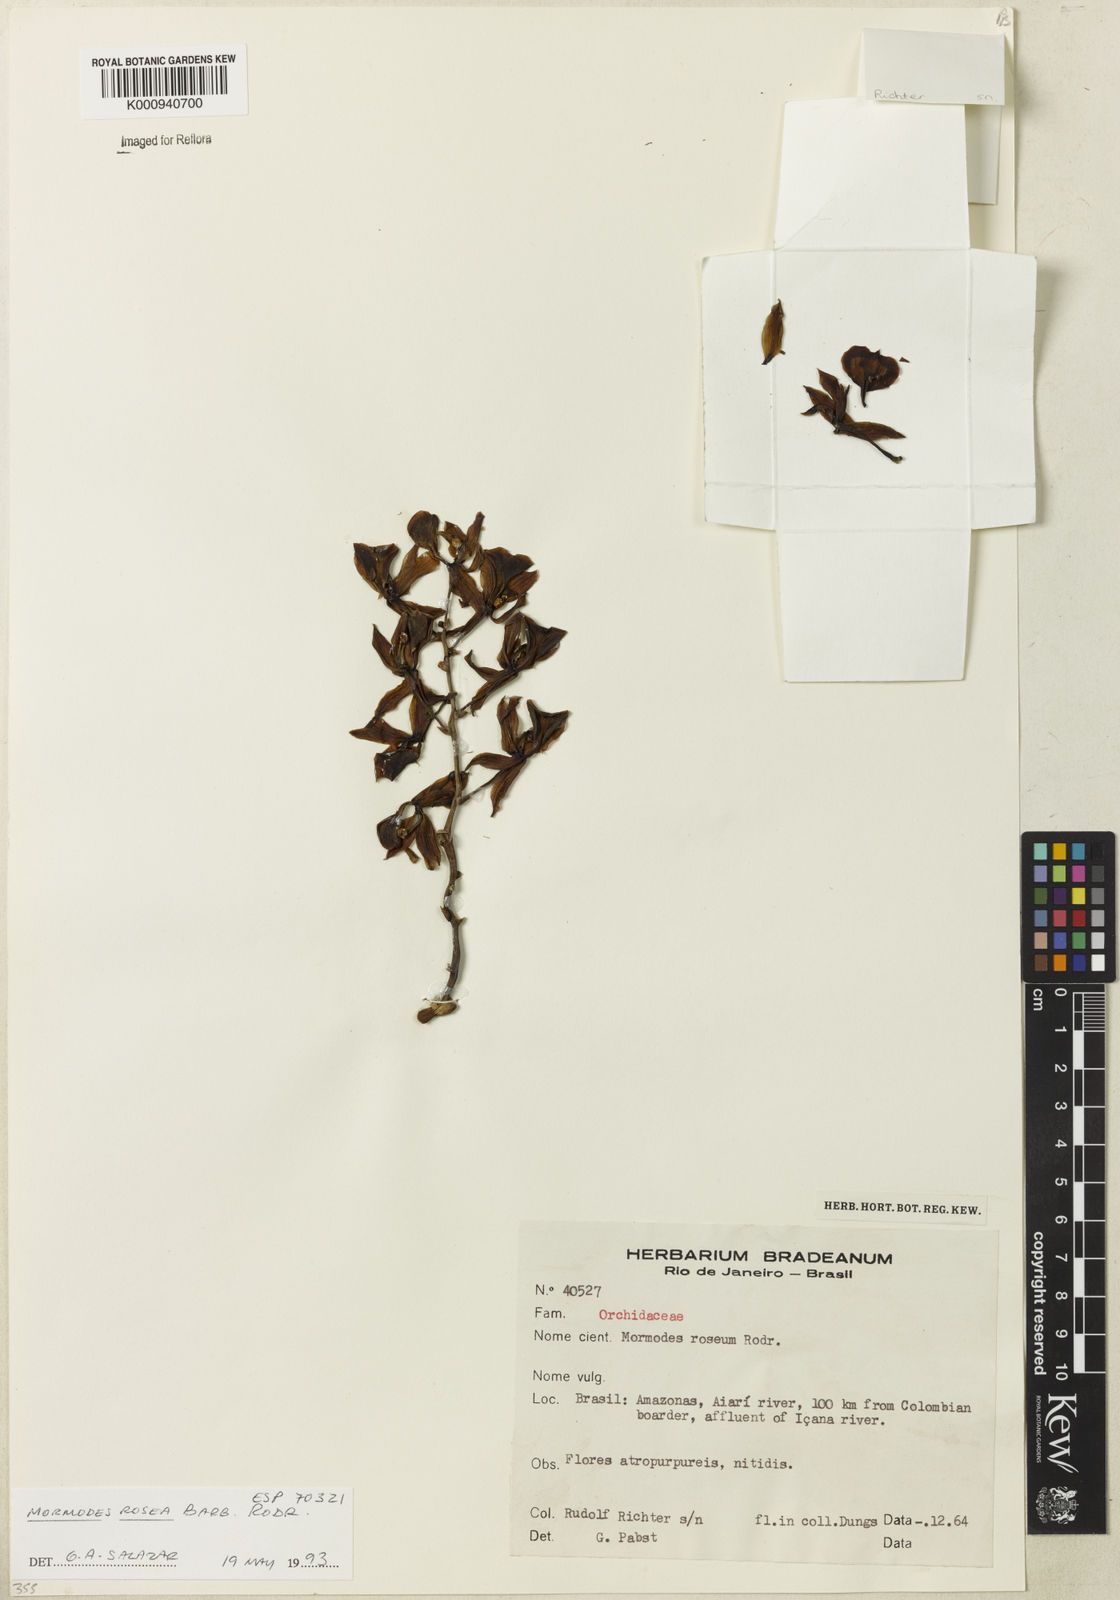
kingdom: Plantae
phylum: Tracheophyta
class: Liliopsida
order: Asparagales
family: Orchidaceae
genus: Mormodes
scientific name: Mormodes rosea
